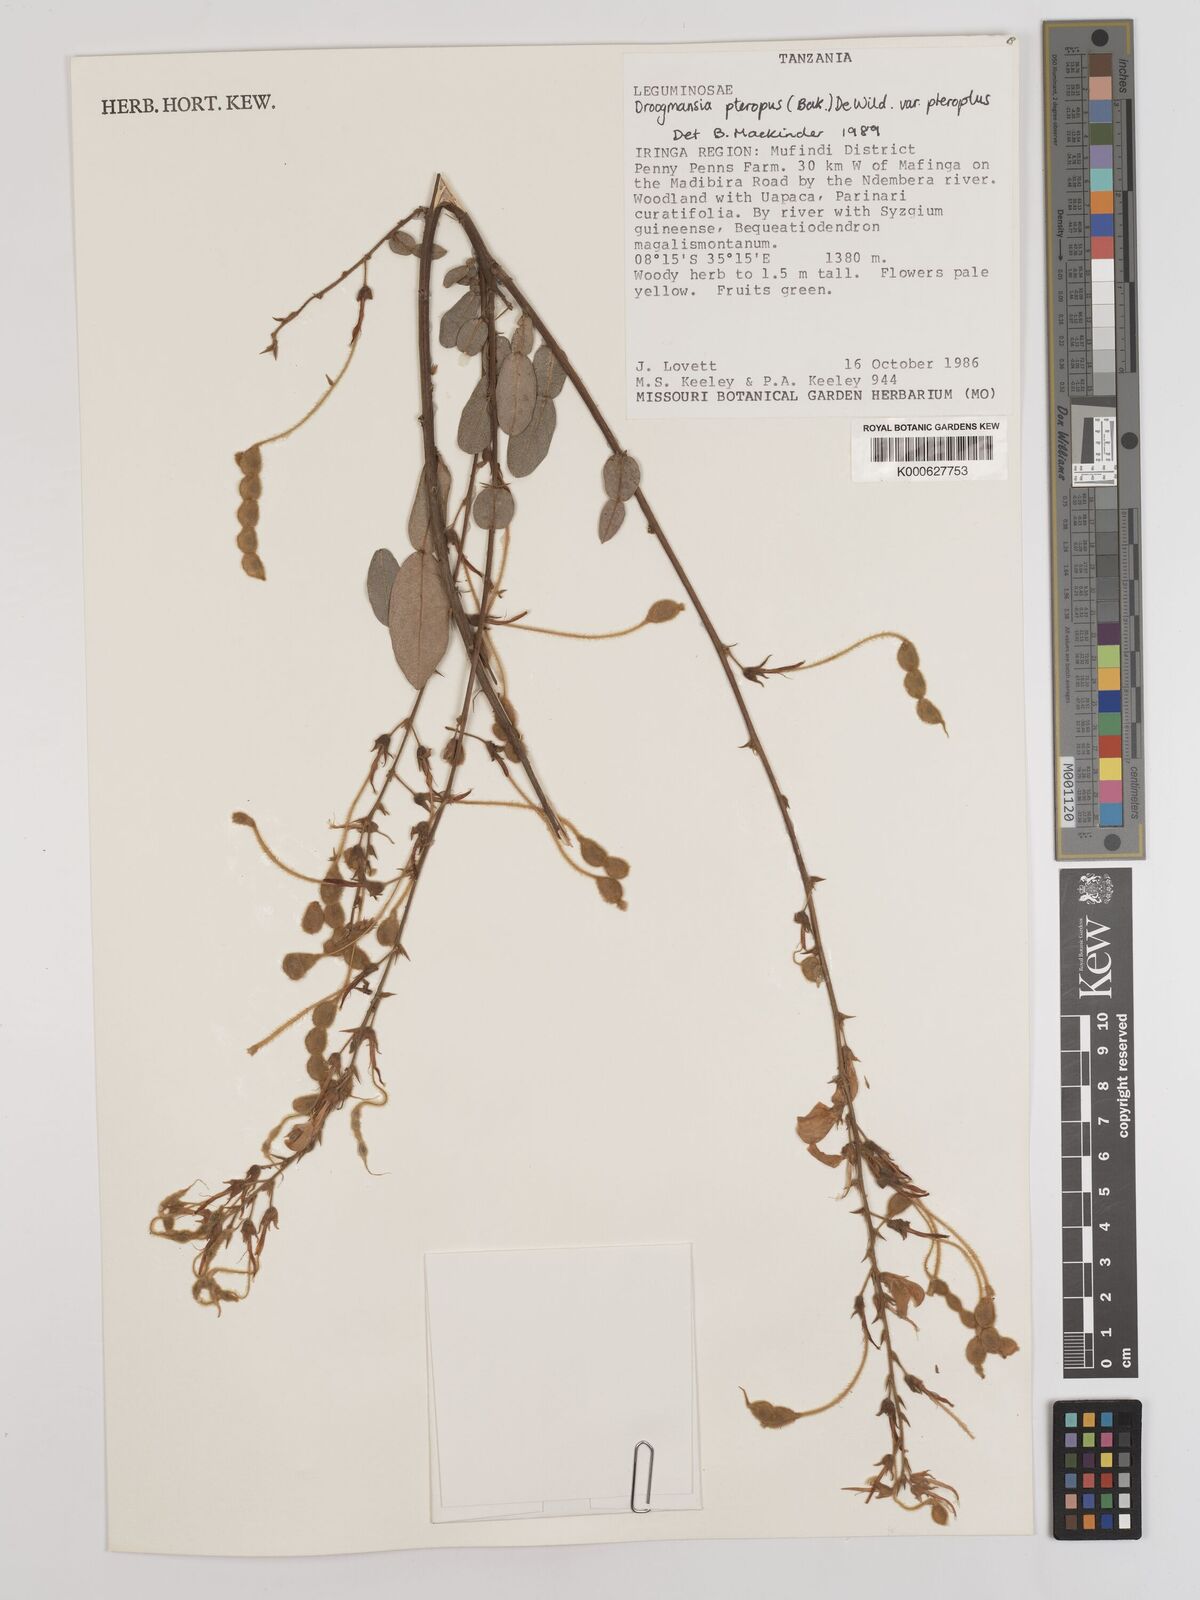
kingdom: Plantae
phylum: Tracheophyta
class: Magnoliopsida
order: Fabales
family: Fabaceae
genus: Droogmansia
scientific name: Droogmansia
